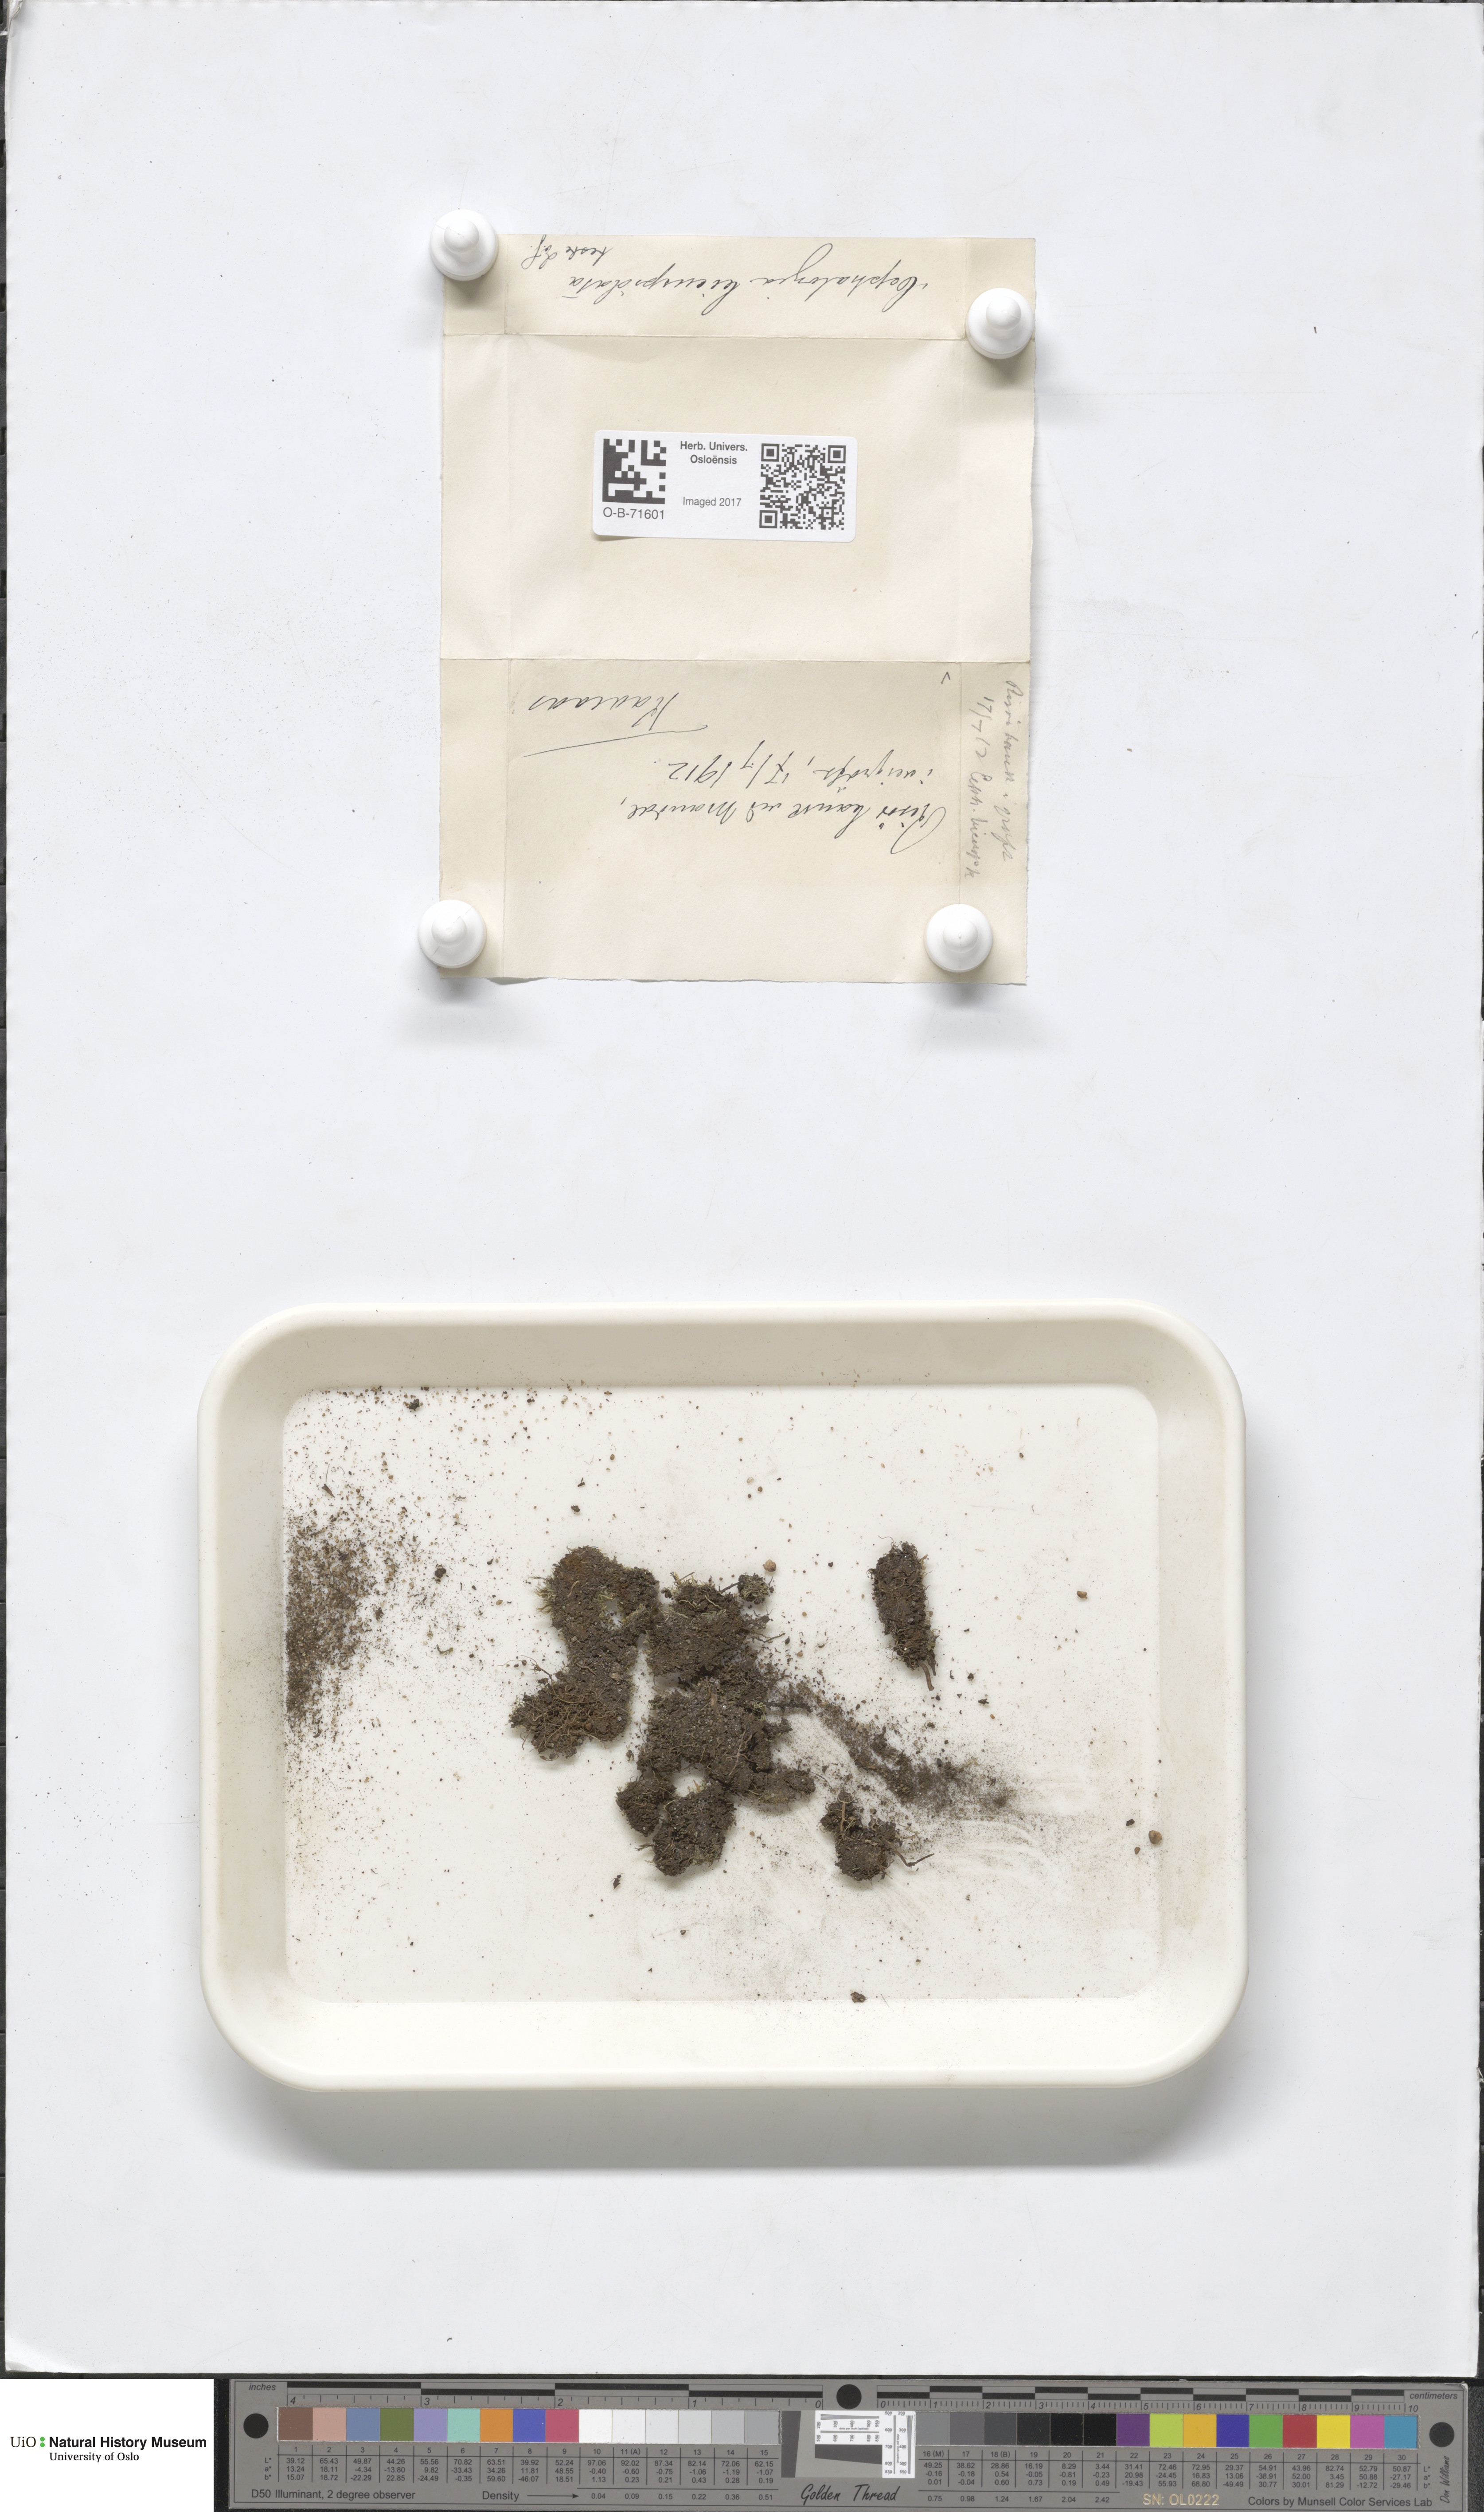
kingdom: Plantae
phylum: Marchantiophyta
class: Jungermanniopsida
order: Jungermanniales
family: Cephaloziaceae
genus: Cephalozia
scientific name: Cephalozia bicuspidata
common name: Two-horned pincerwort
